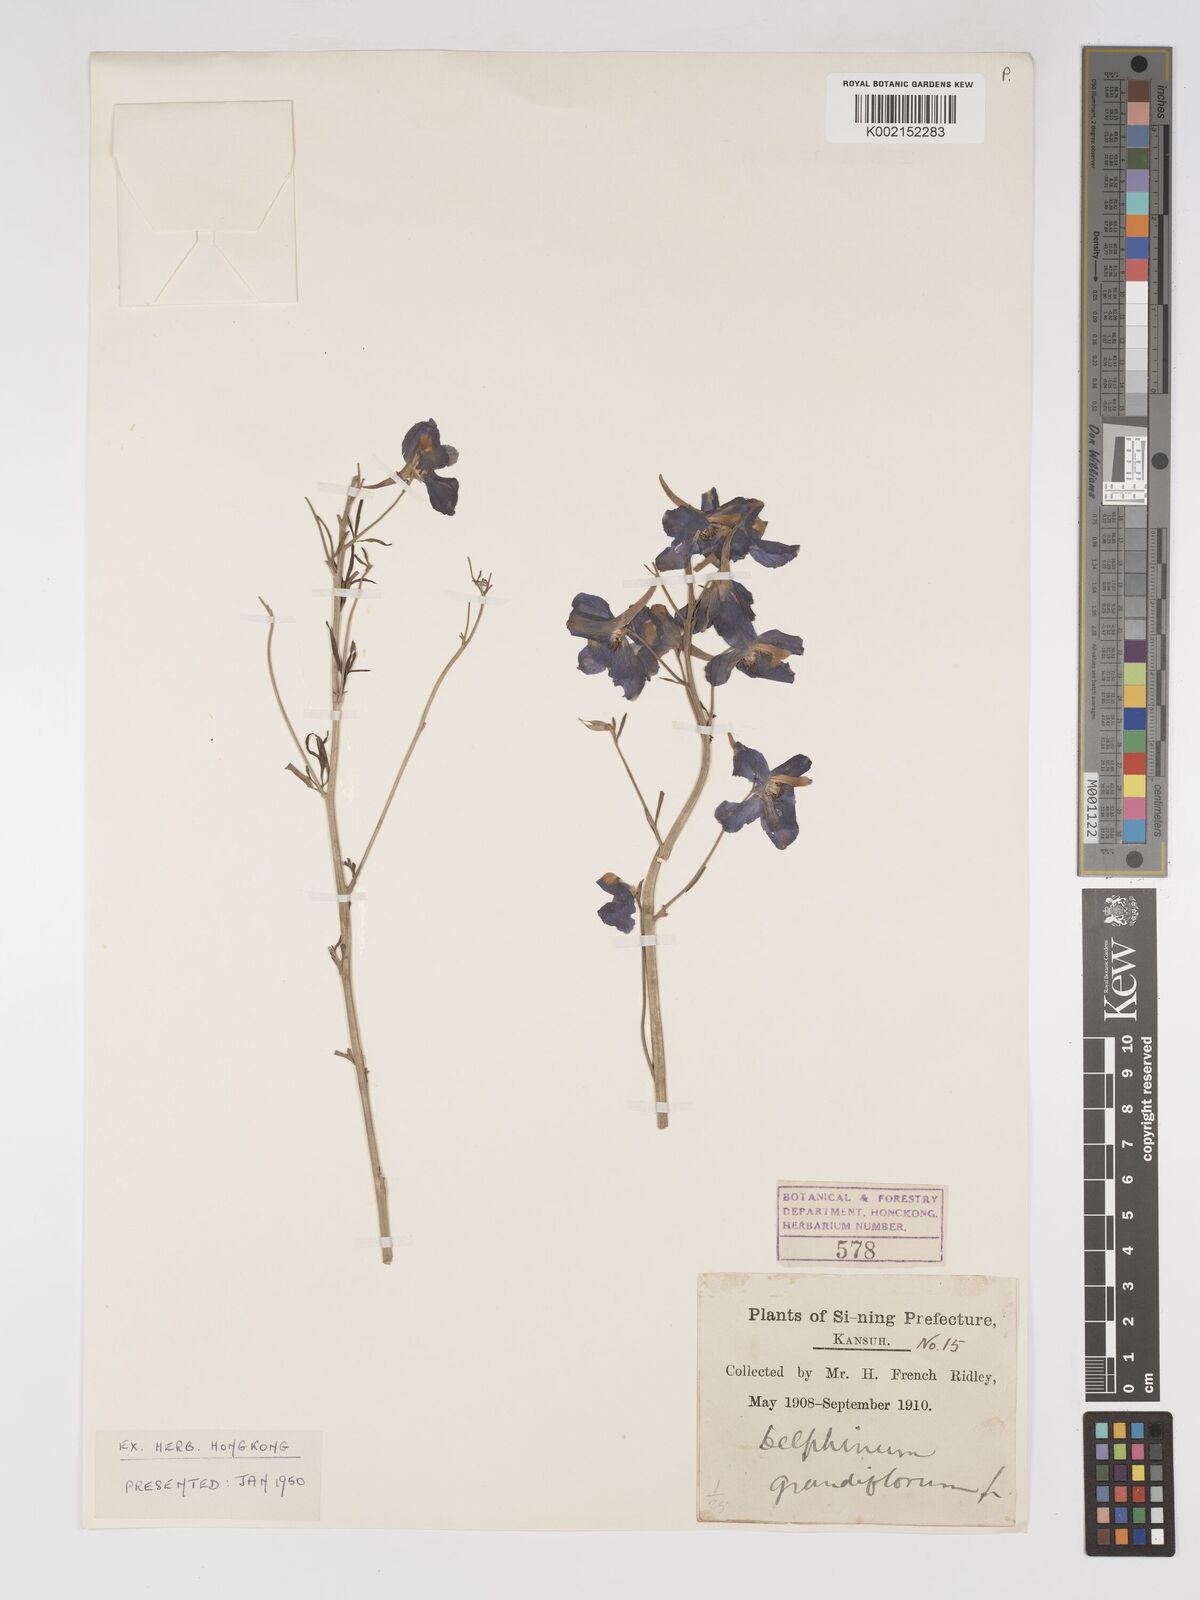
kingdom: Plantae
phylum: Tracheophyta
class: Magnoliopsida
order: Ranunculales
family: Ranunculaceae
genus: Delphinium
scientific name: Delphinium grandiflorum
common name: Siberian larkspur
